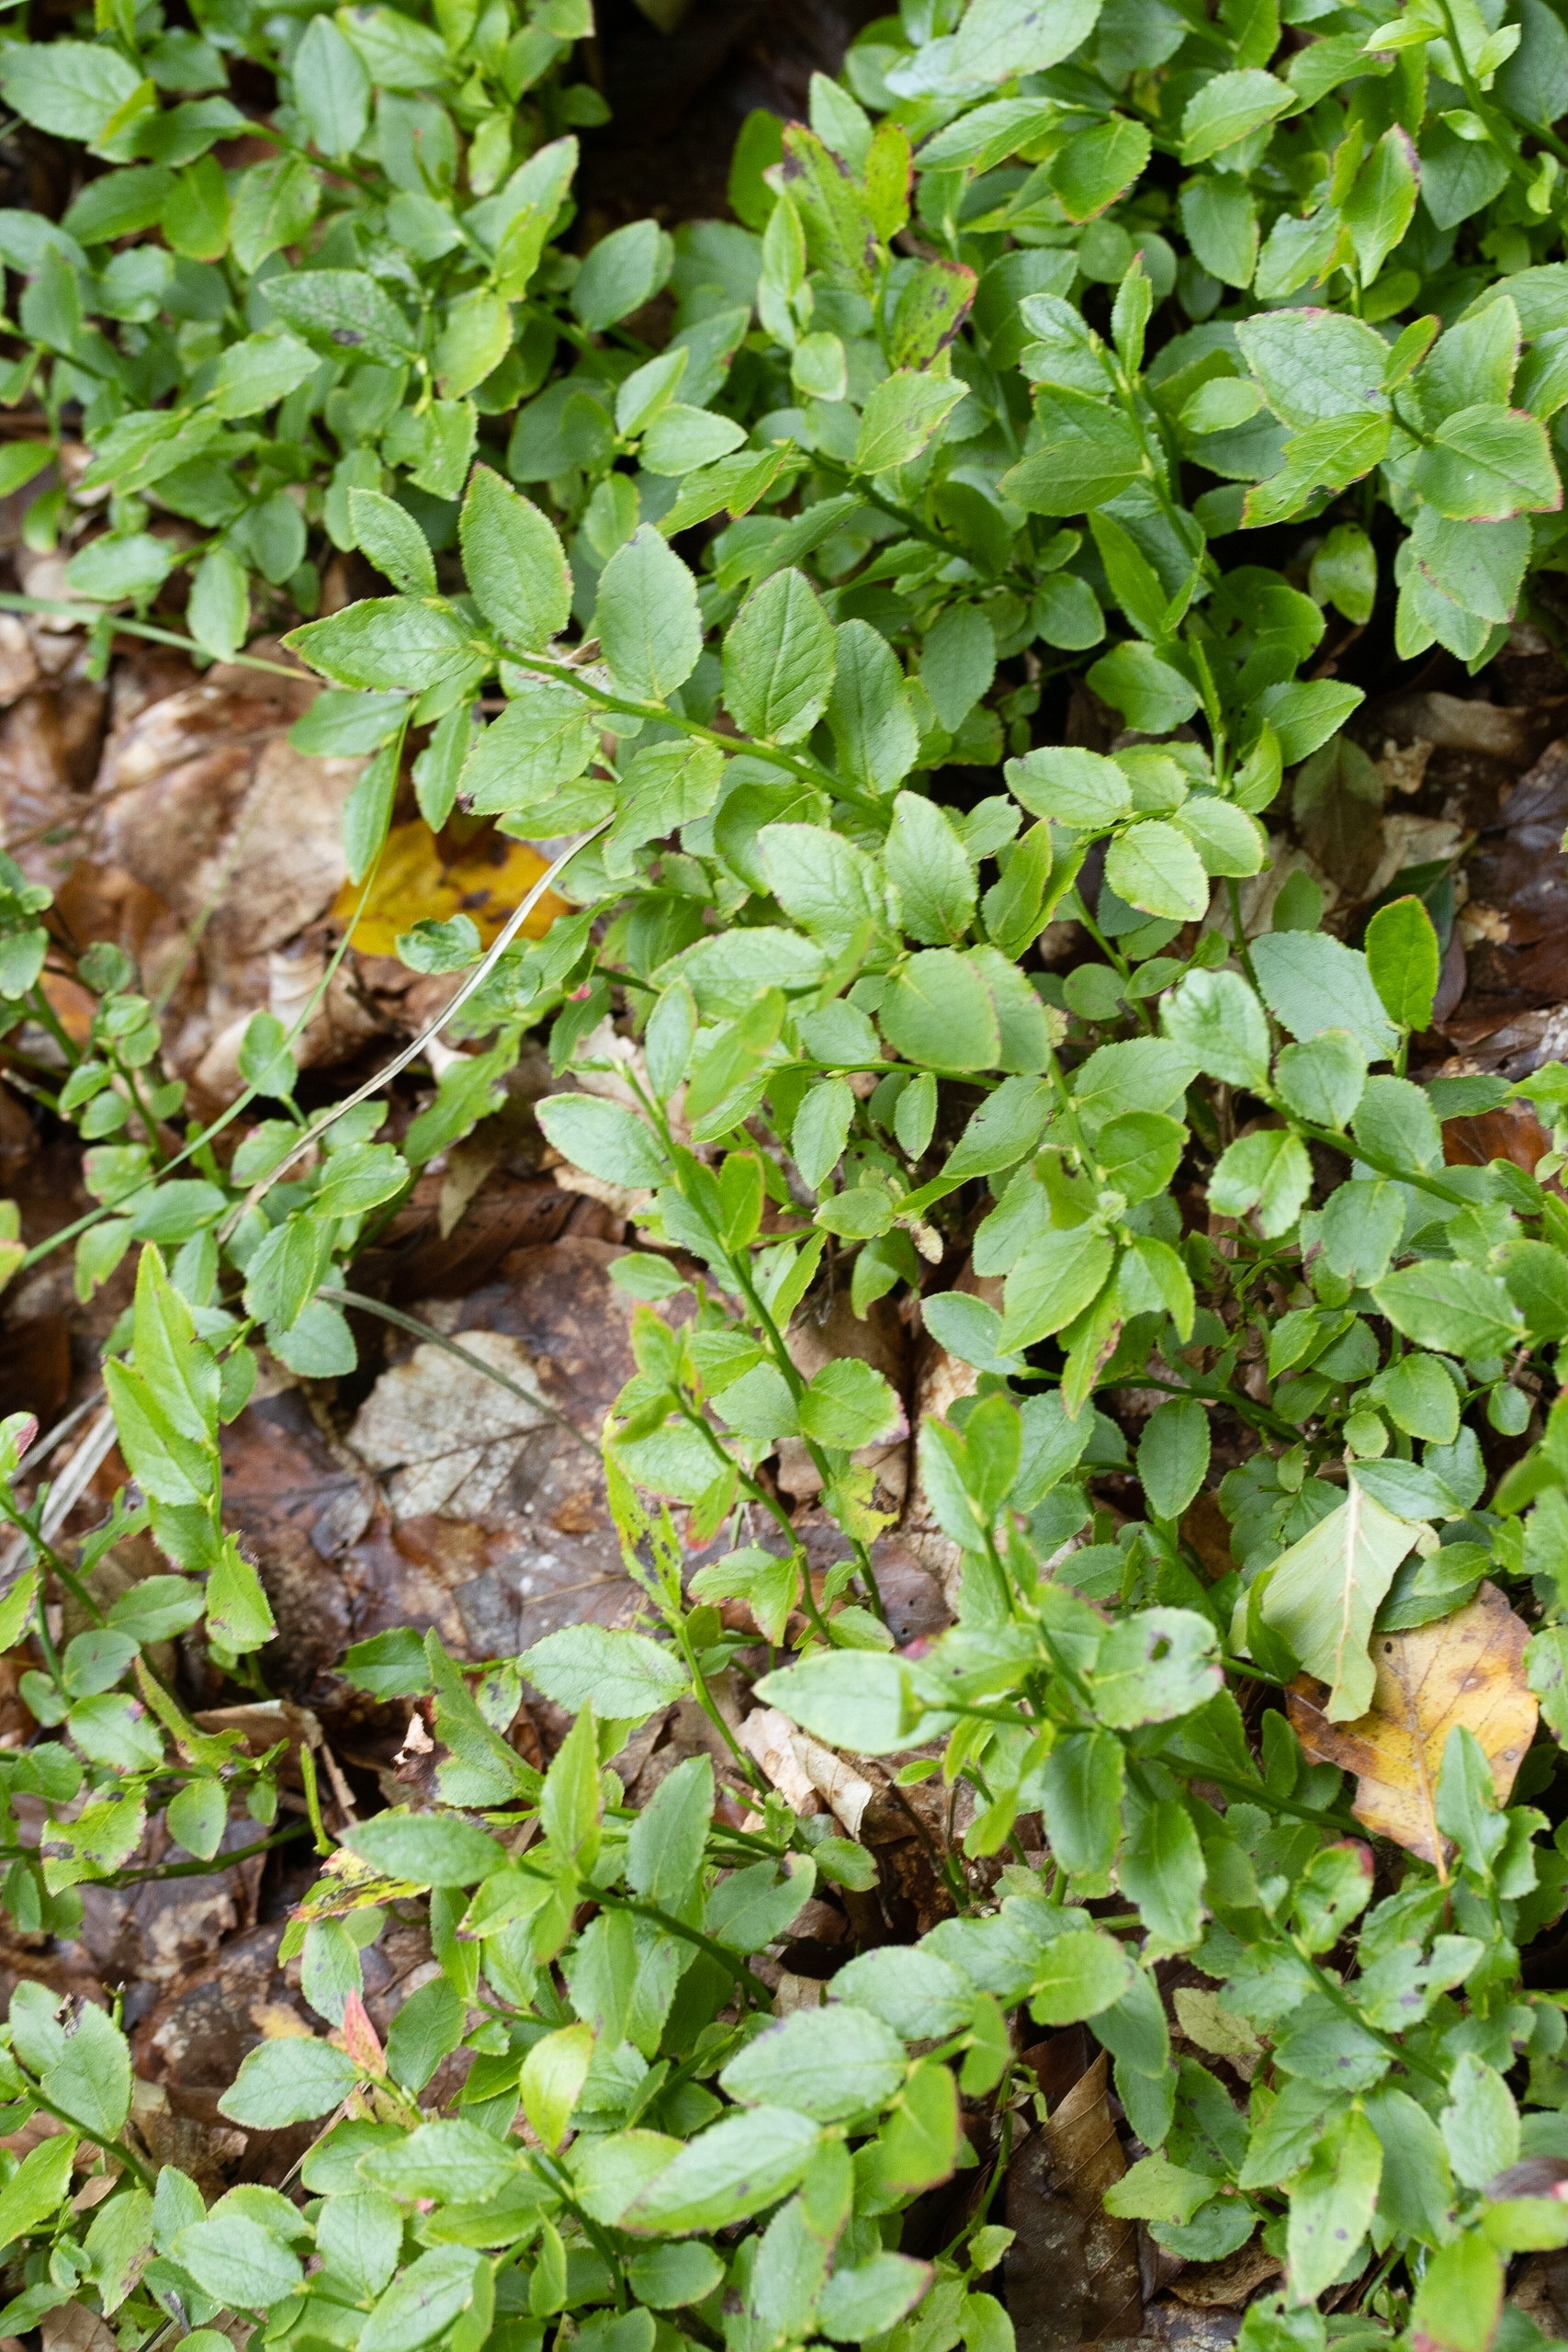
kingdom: Plantae
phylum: Tracheophyta
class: Magnoliopsida
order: Ericales
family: Ericaceae
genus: Vaccinium
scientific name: Vaccinium myrtillus
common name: Blåbær
